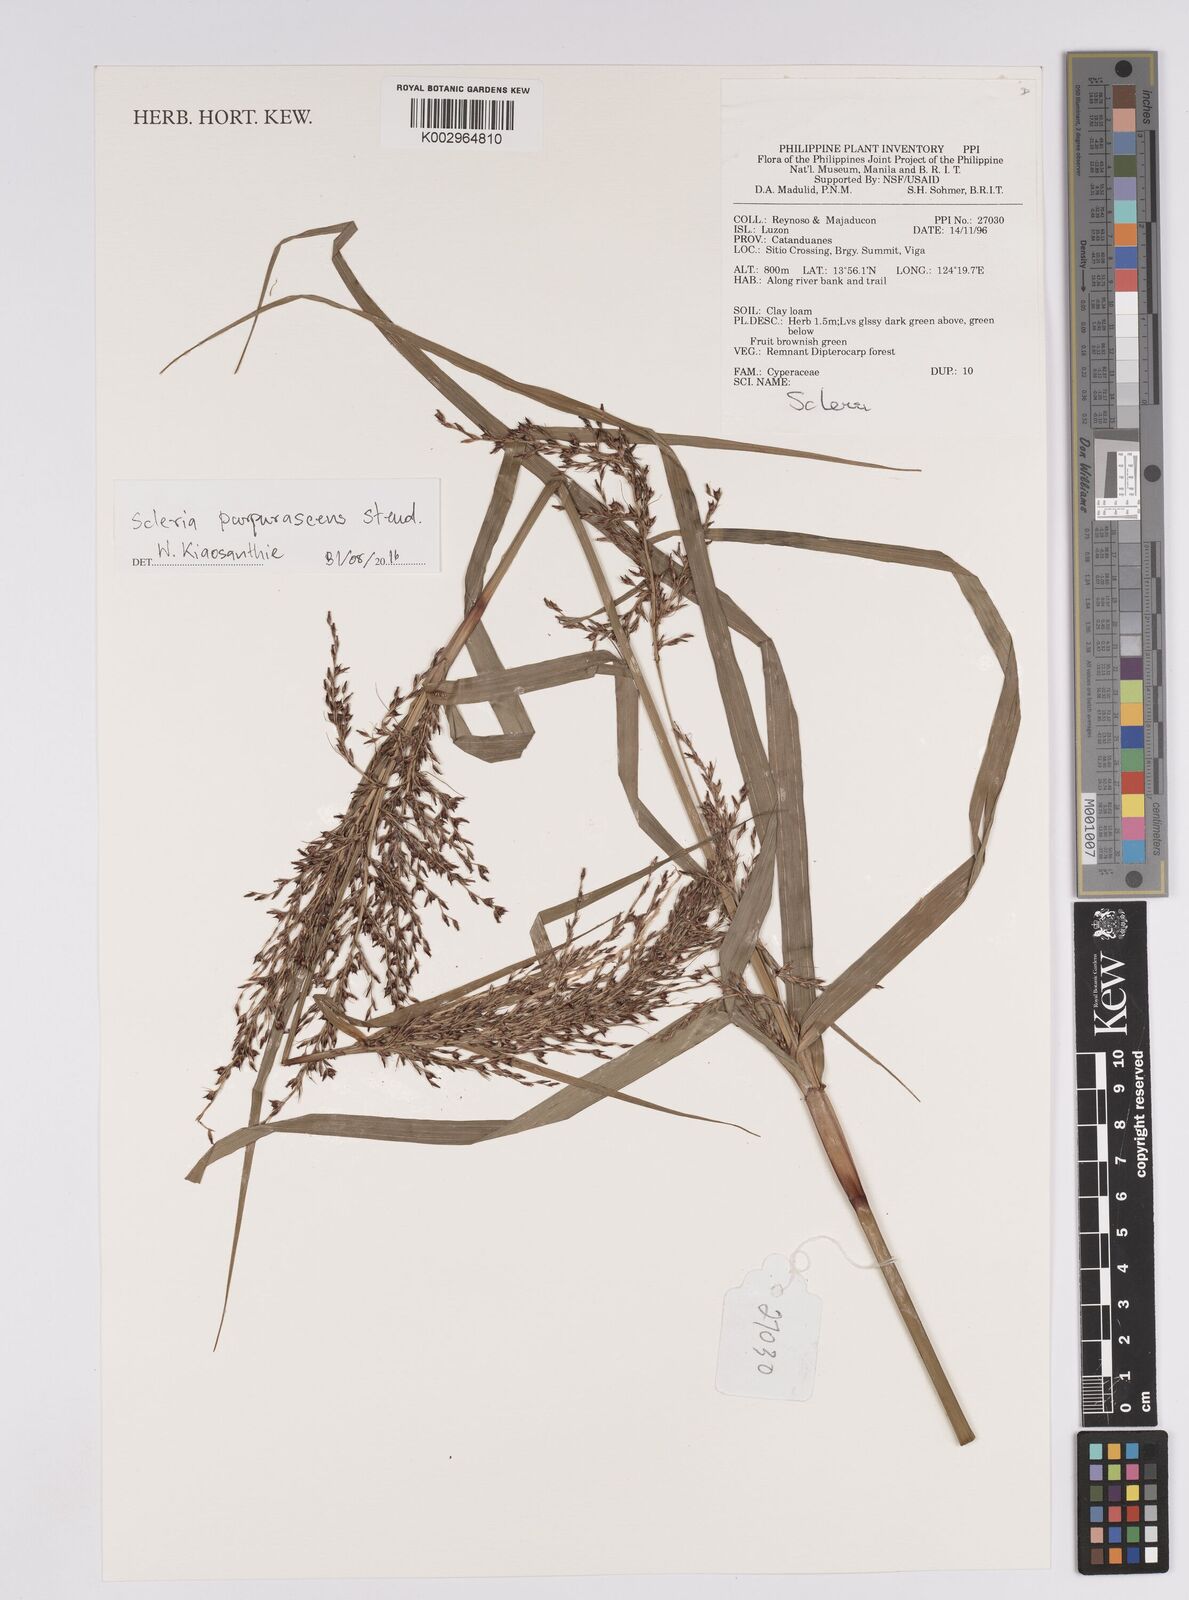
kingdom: Plantae
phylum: Tracheophyta
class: Liliopsida
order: Poales
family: Cyperaceae
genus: Scleria
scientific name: Scleria purpurascens
